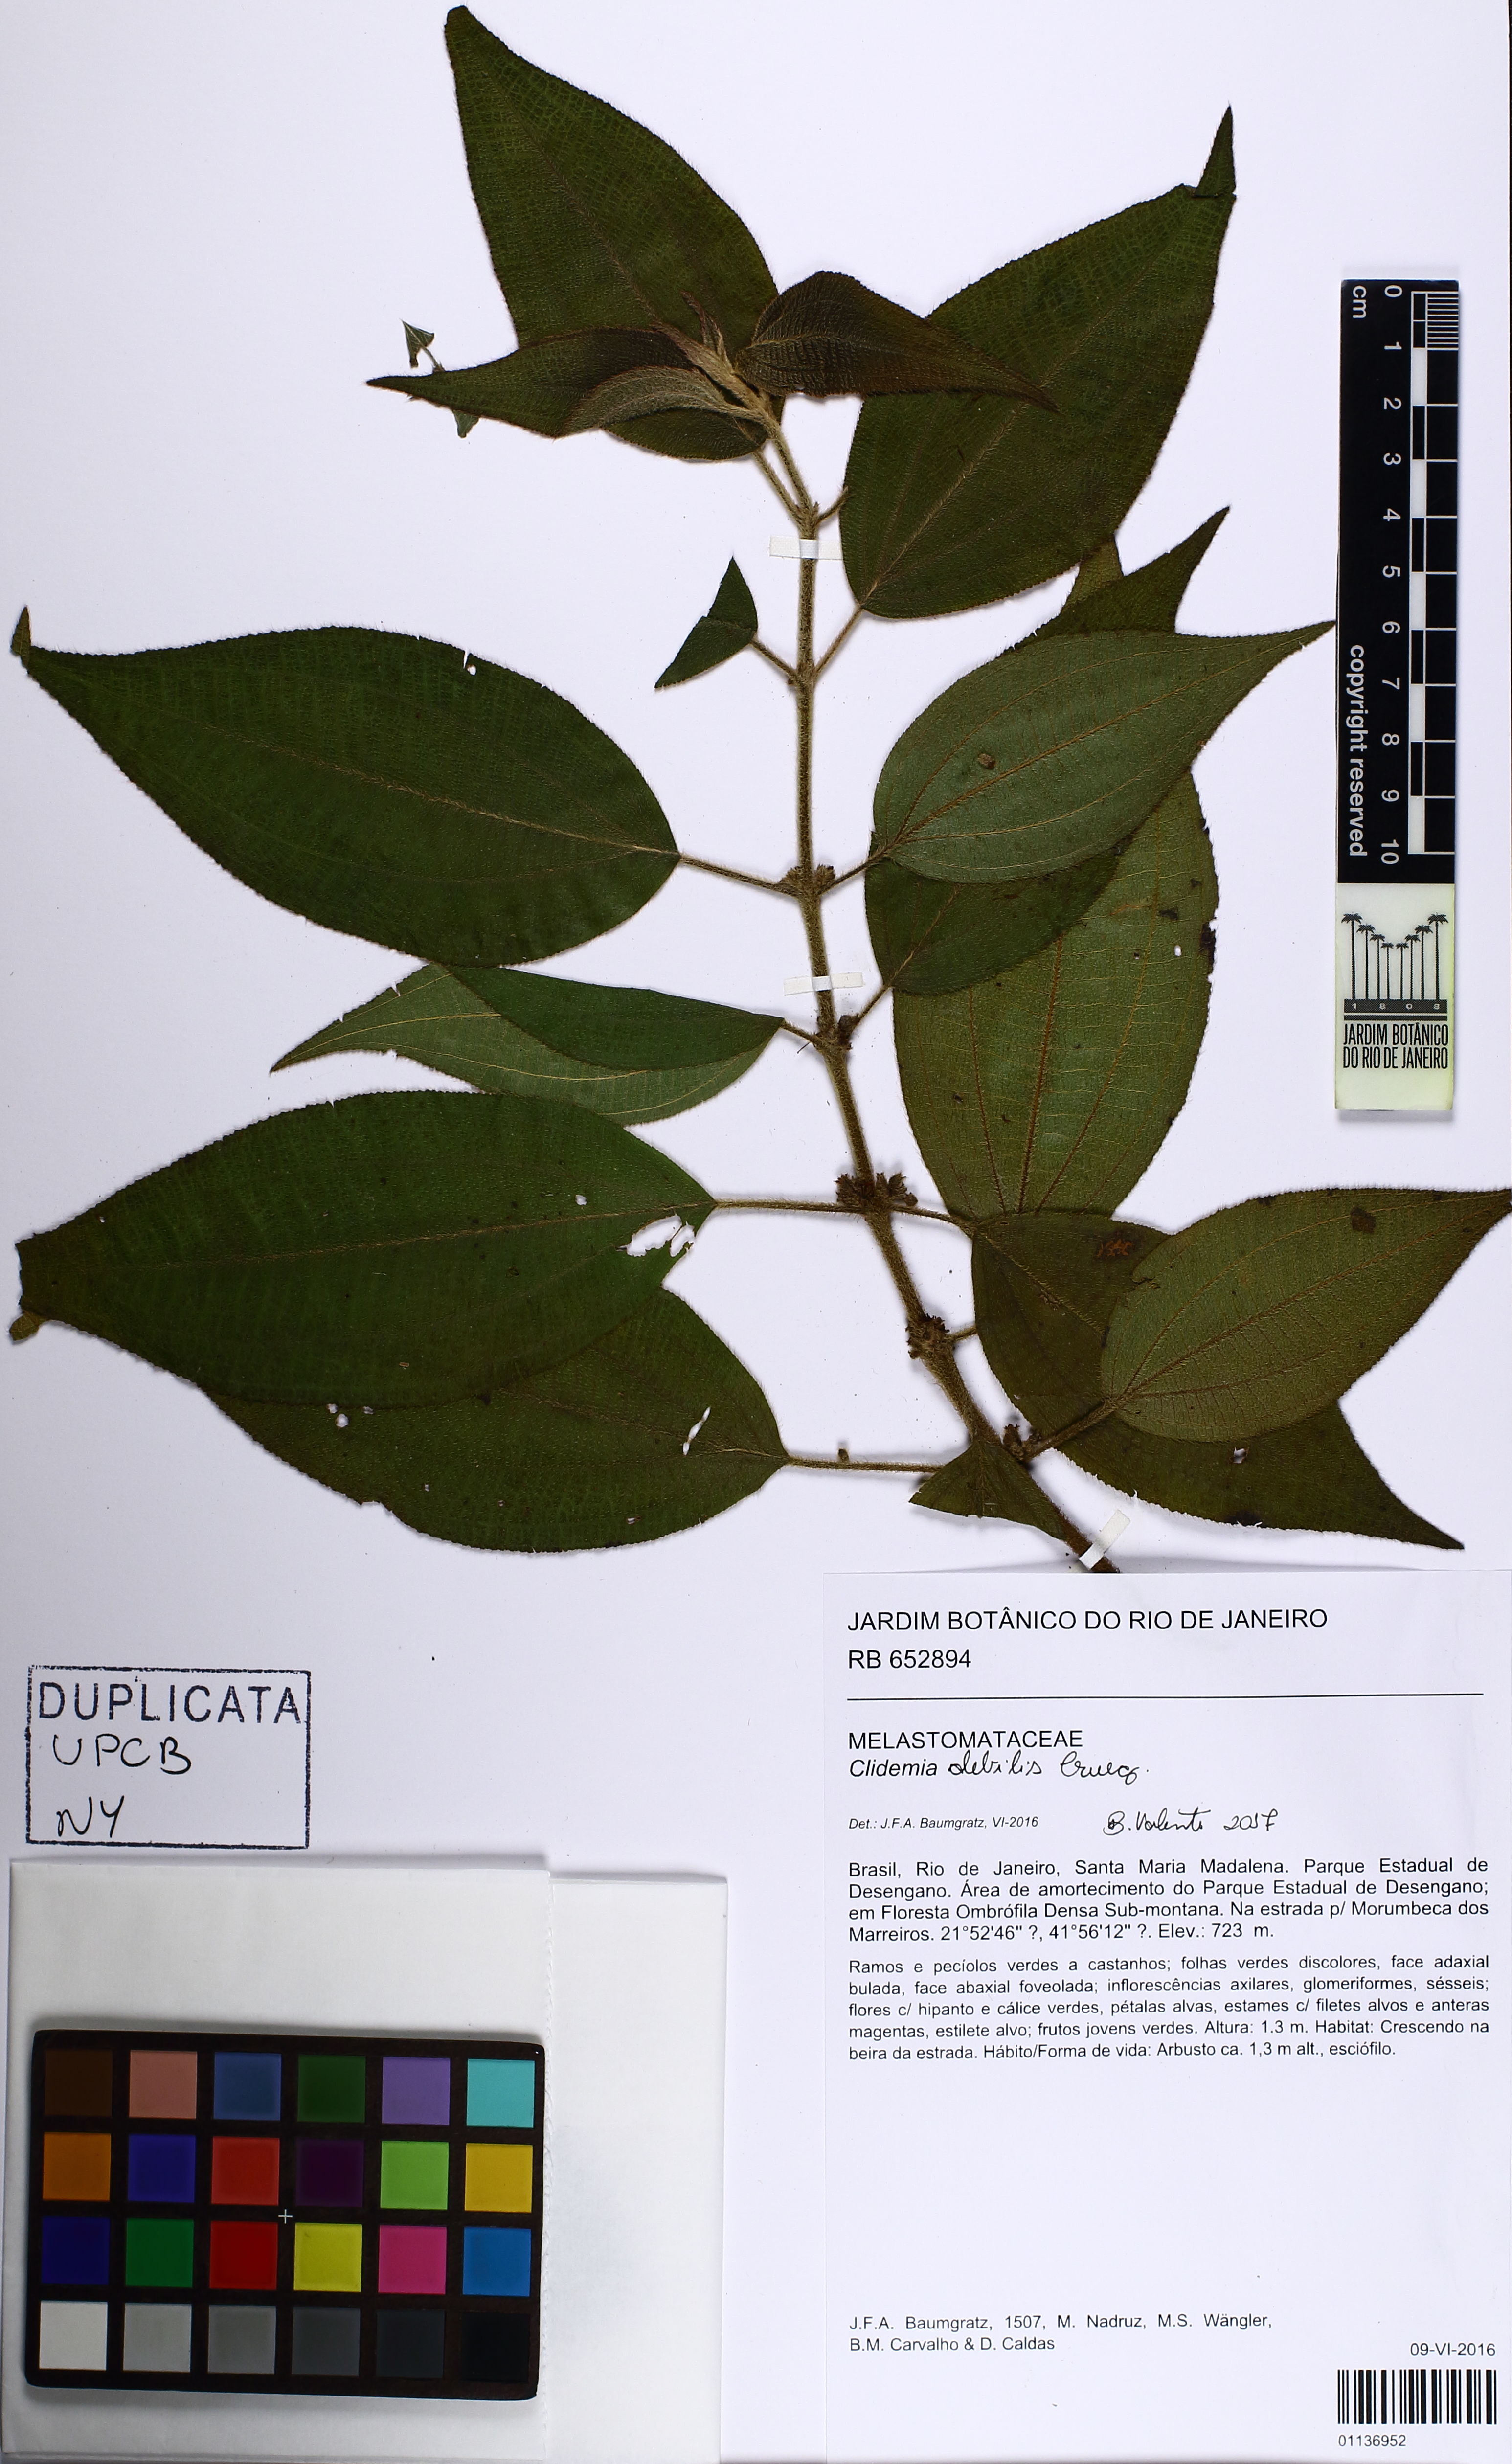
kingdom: Plantae
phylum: Tracheophyta
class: Magnoliopsida
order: Myrtales
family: Melastomataceae
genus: Miconia
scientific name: Miconia debilis
